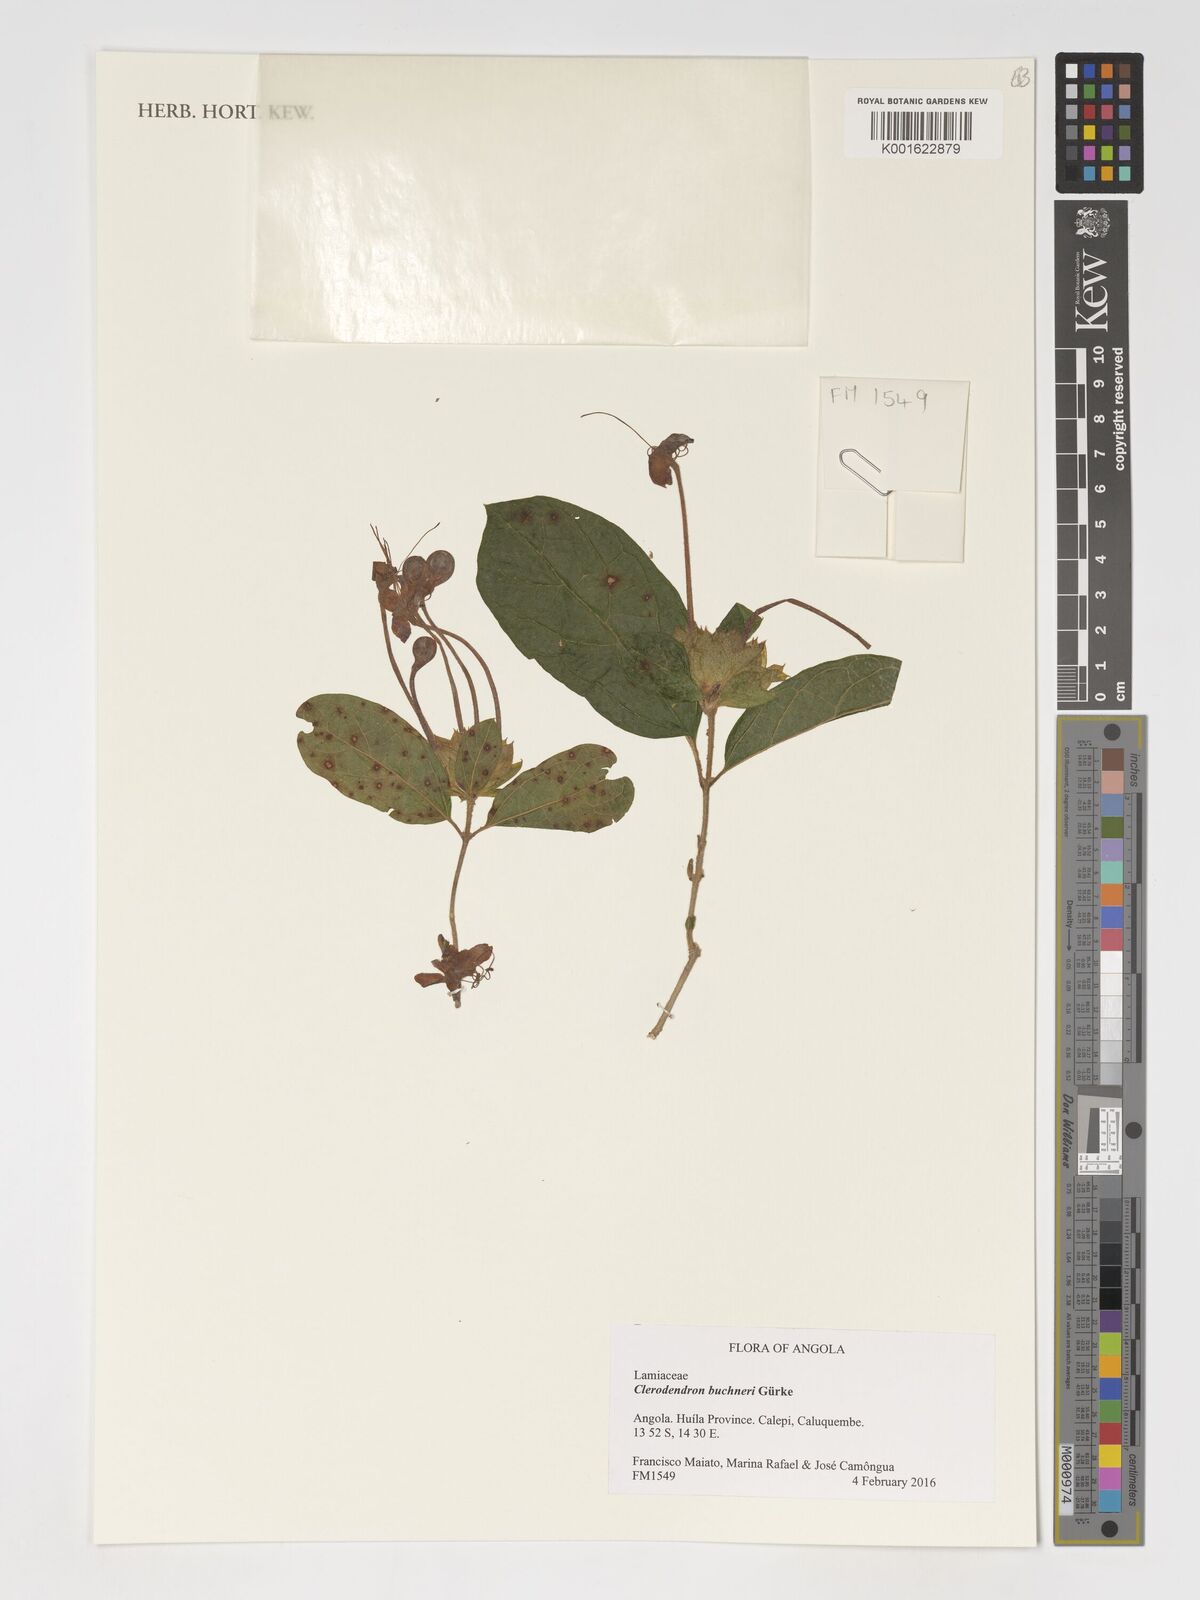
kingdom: Plantae
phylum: Tracheophyta
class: Magnoliopsida
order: Lamiales
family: Lamiaceae
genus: Clerodendrum
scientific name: Clerodendrum buchneri
